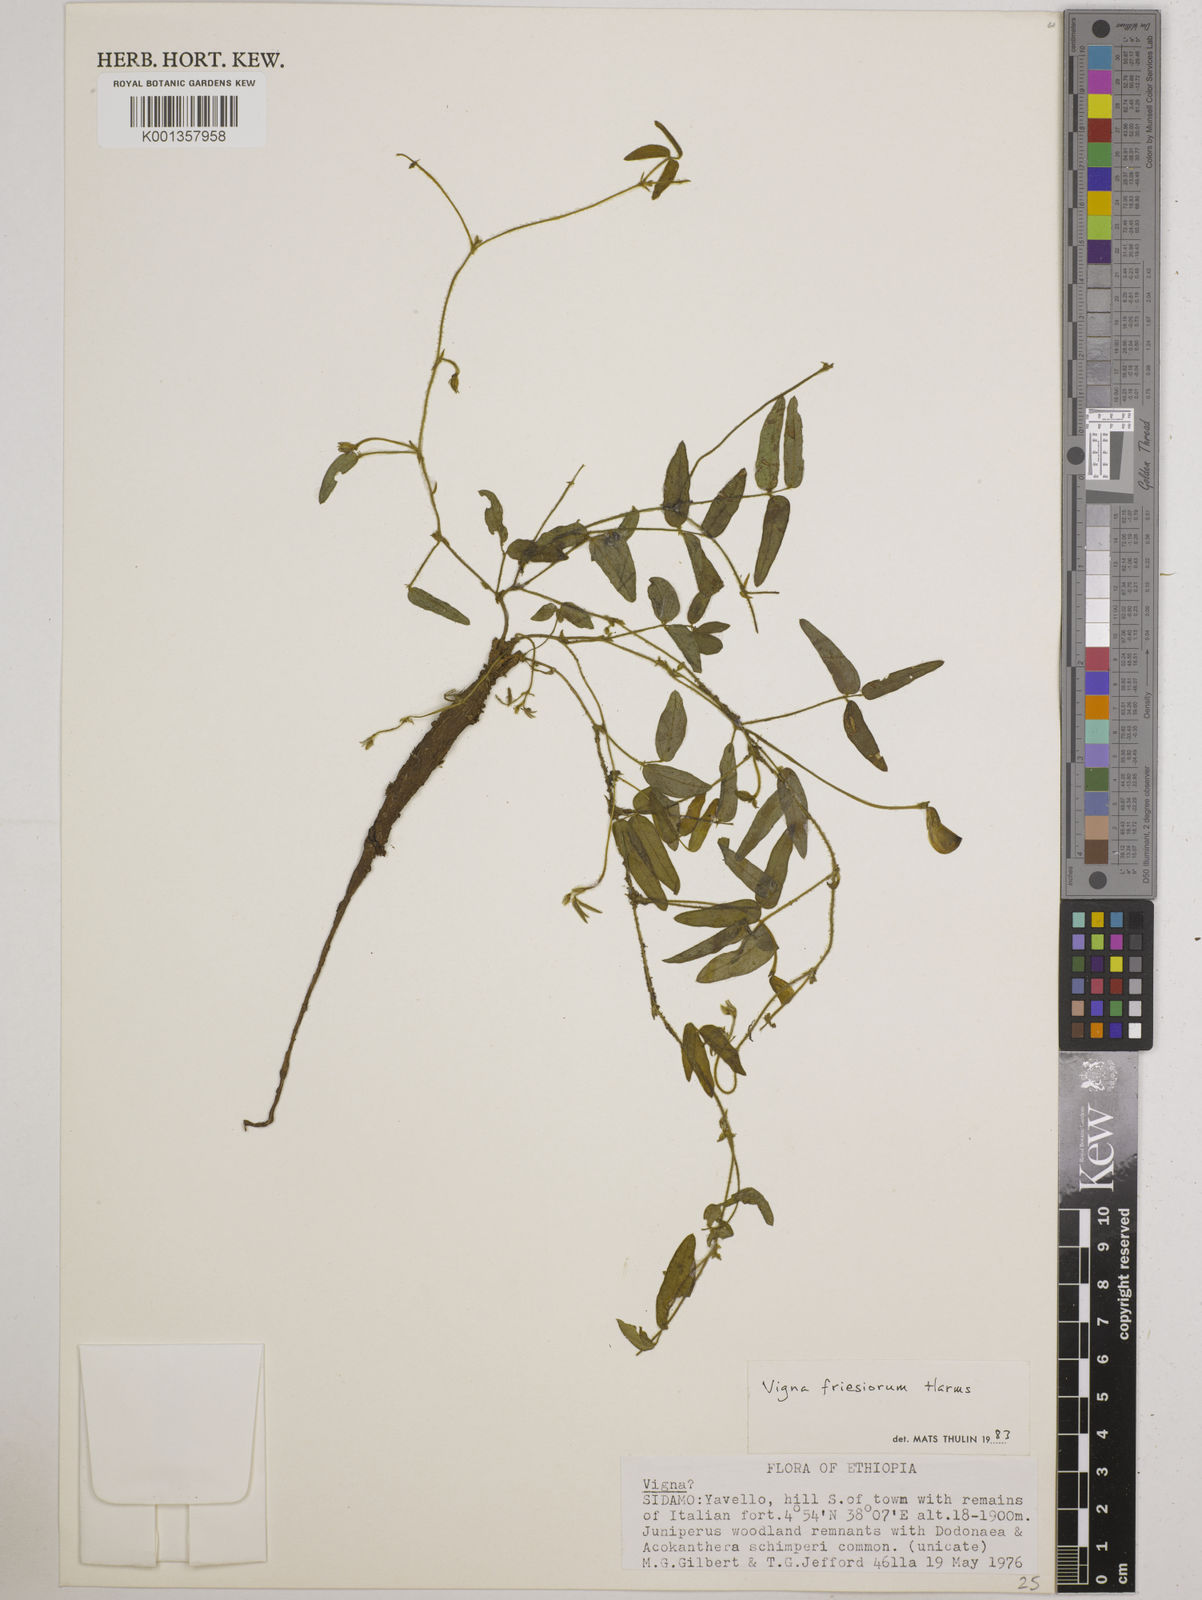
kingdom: Plantae
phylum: Tracheophyta
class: Magnoliopsida
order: Fabales
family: Fabaceae
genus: Vigna
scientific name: Vigna friesiorum
